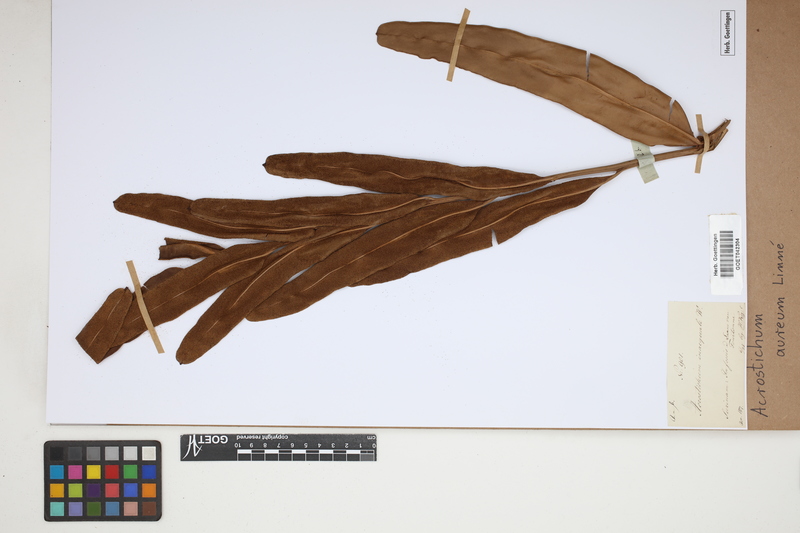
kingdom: Plantae
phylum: Tracheophyta
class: Polypodiopsida
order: Polypodiales
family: Pteridaceae
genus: Acrostichum
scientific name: Acrostichum aureum
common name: Leather fern
